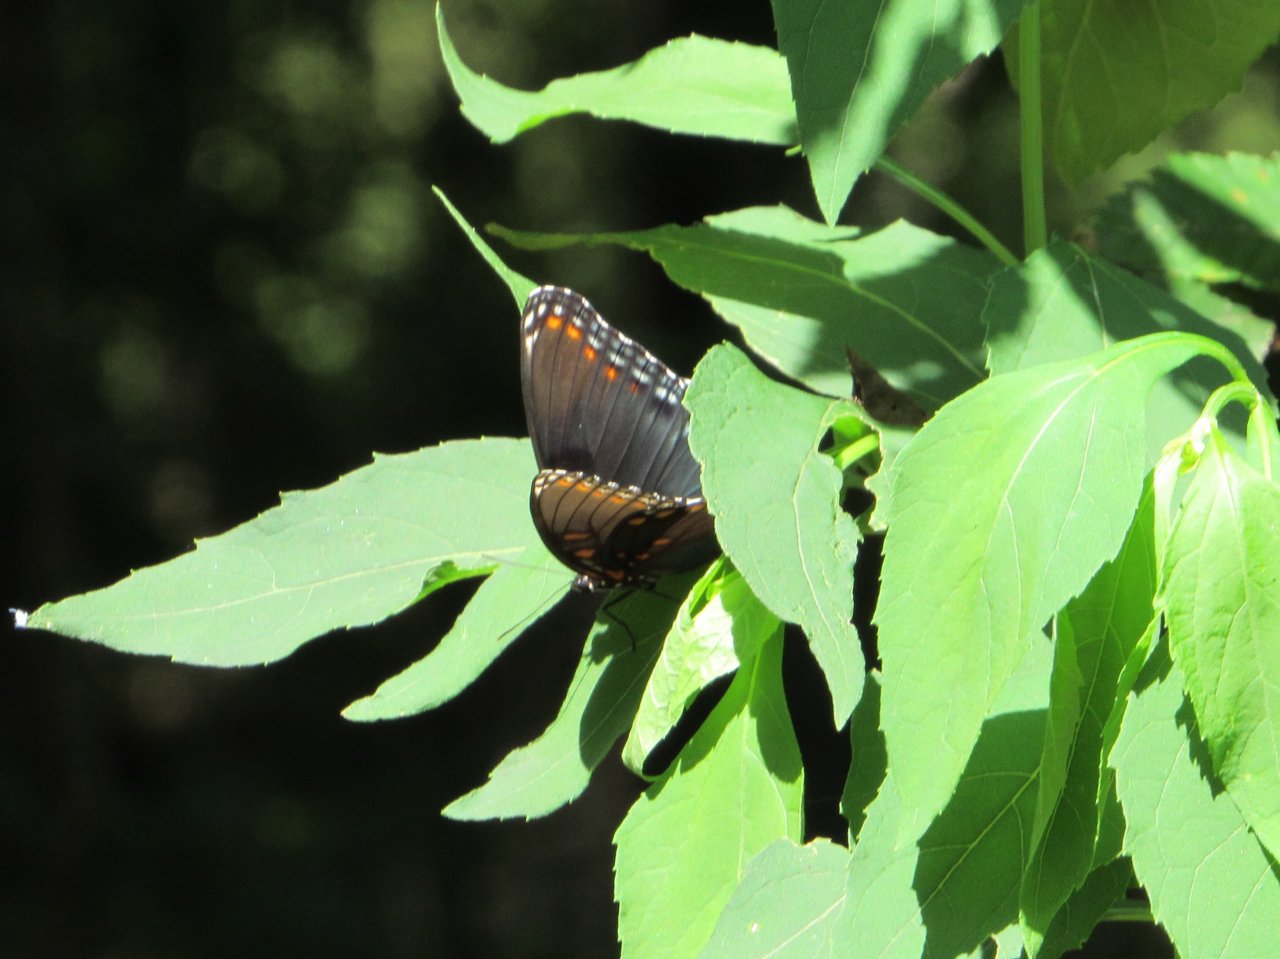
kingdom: Animalia
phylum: Arthropoda
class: Insecta
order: Lepidoptera
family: Nymphalidae
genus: Limenitis
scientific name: Limenitis astyanax
